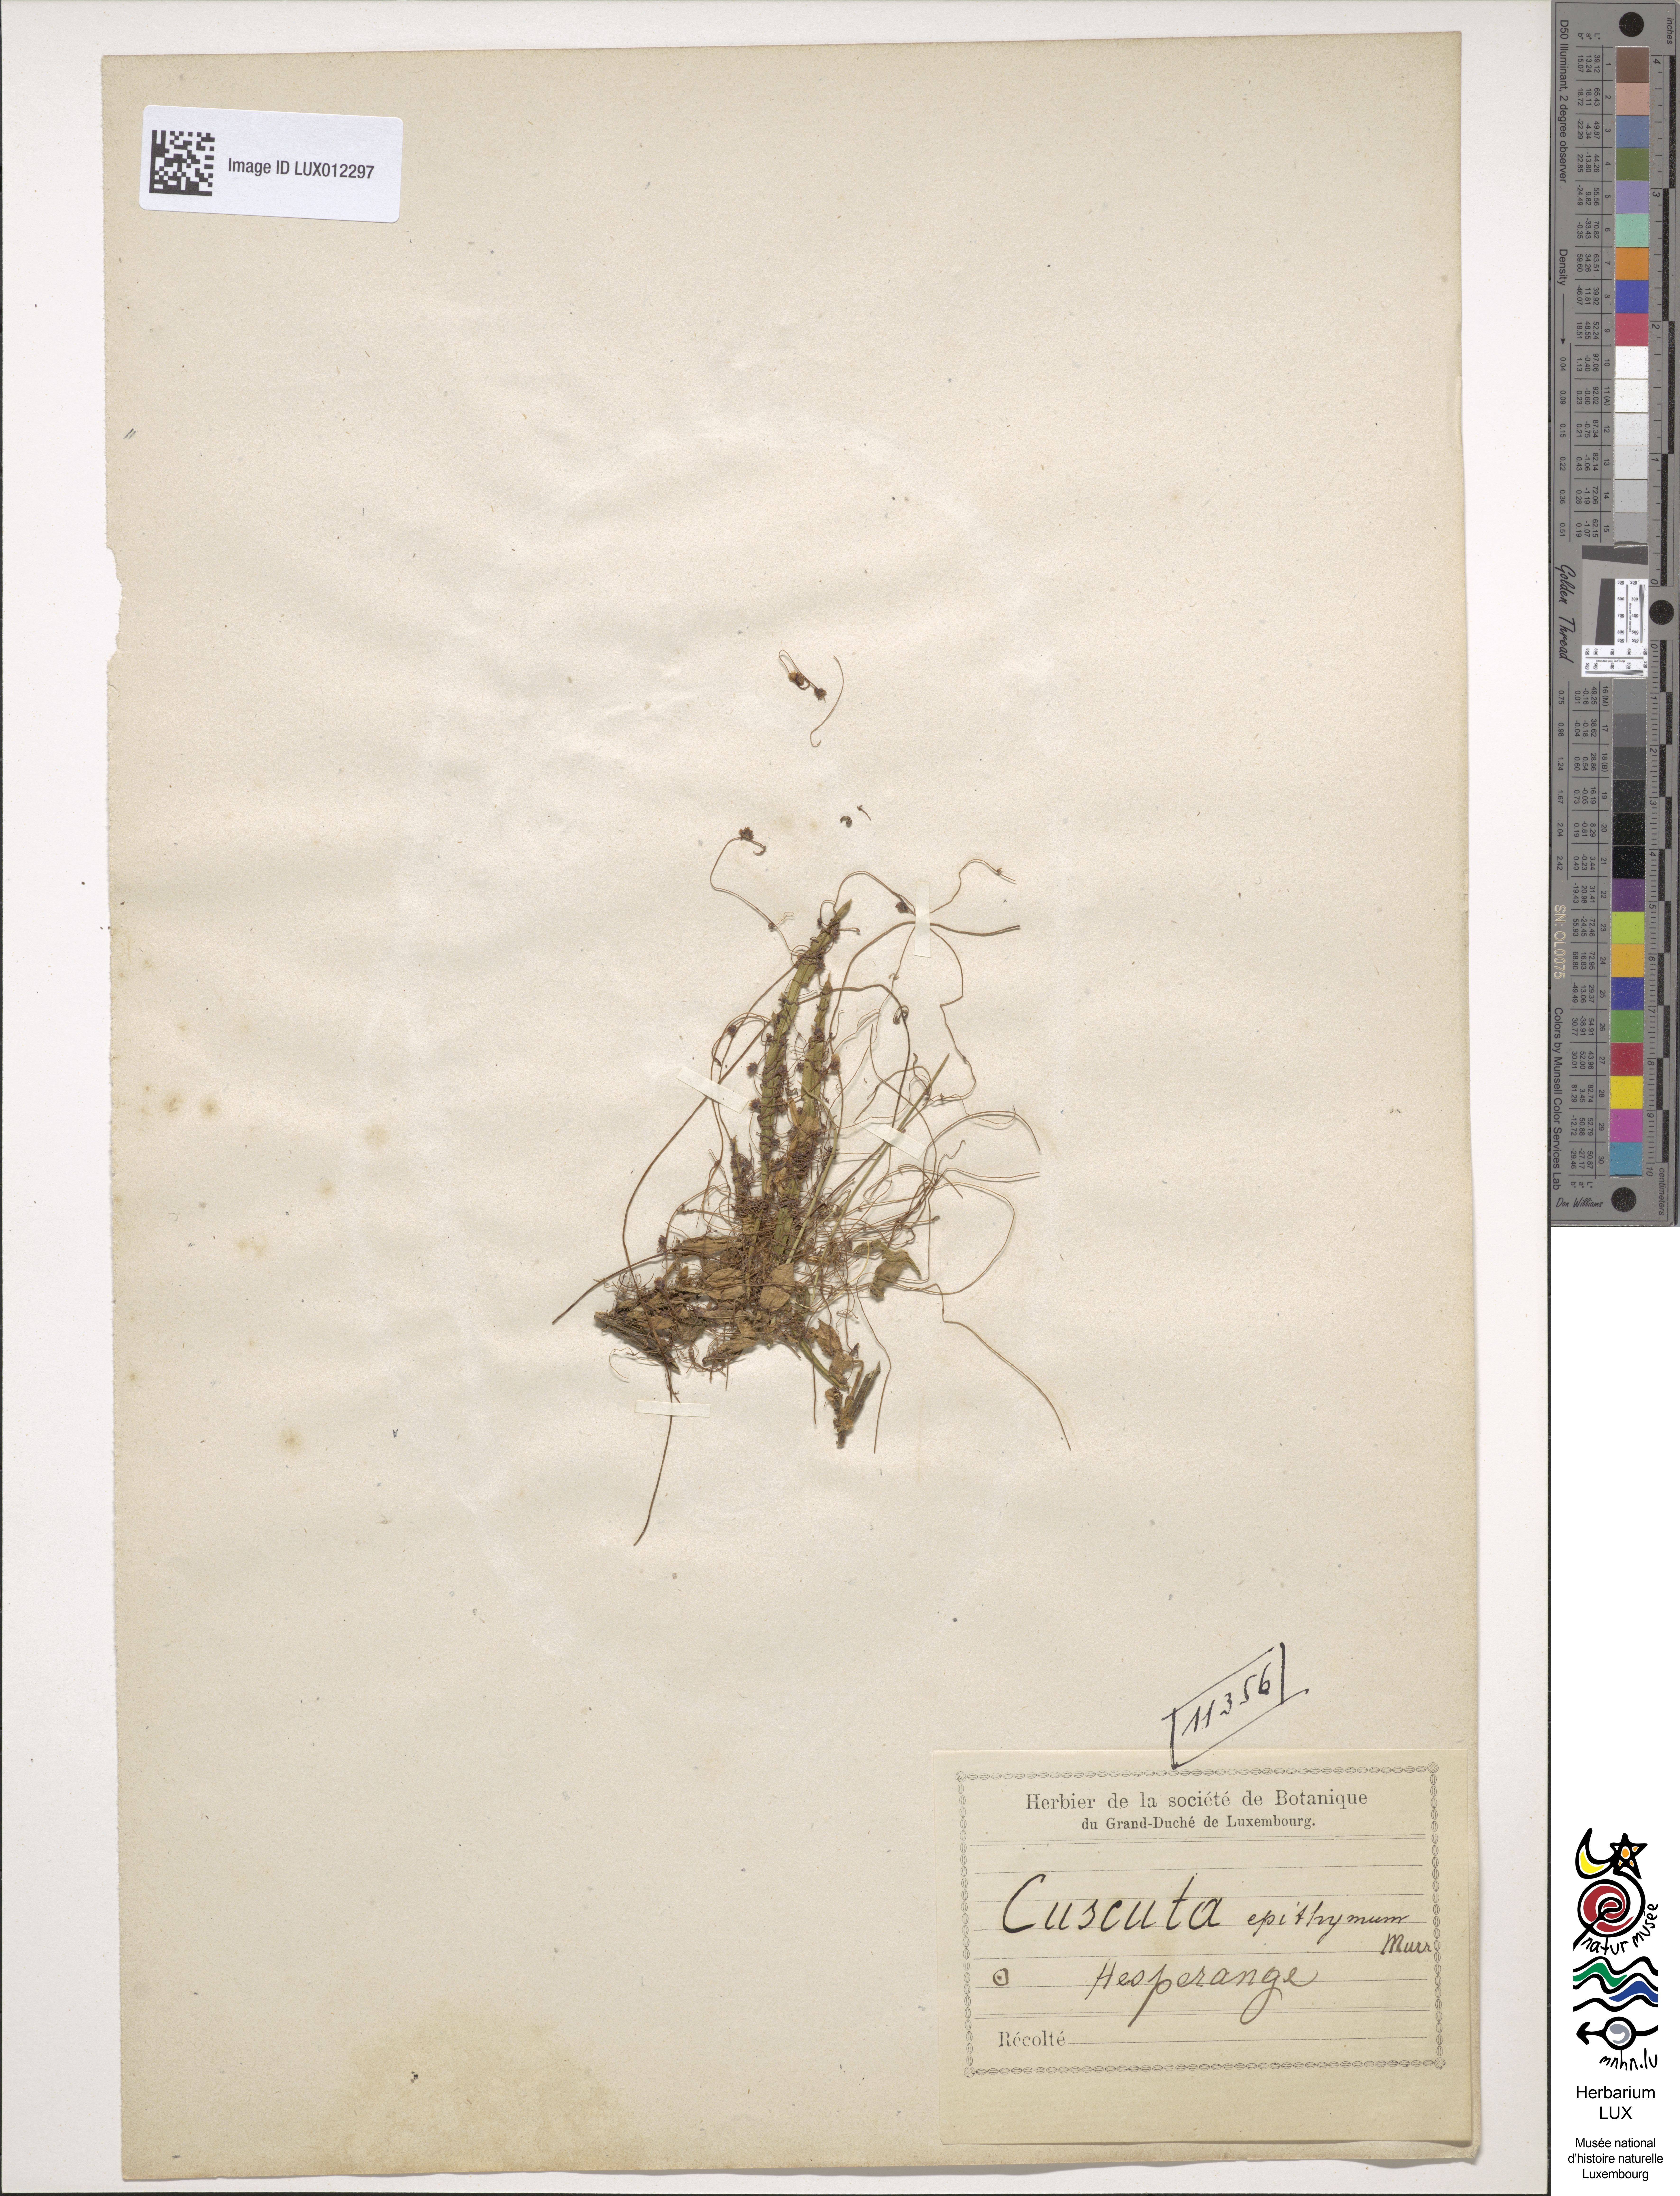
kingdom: Plantae
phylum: Tracheophyta
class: Magnoliopsida
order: Solanales
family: Convolvulaceae
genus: Cuscuta
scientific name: Cuscuta epithymum
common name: Clover dodder
